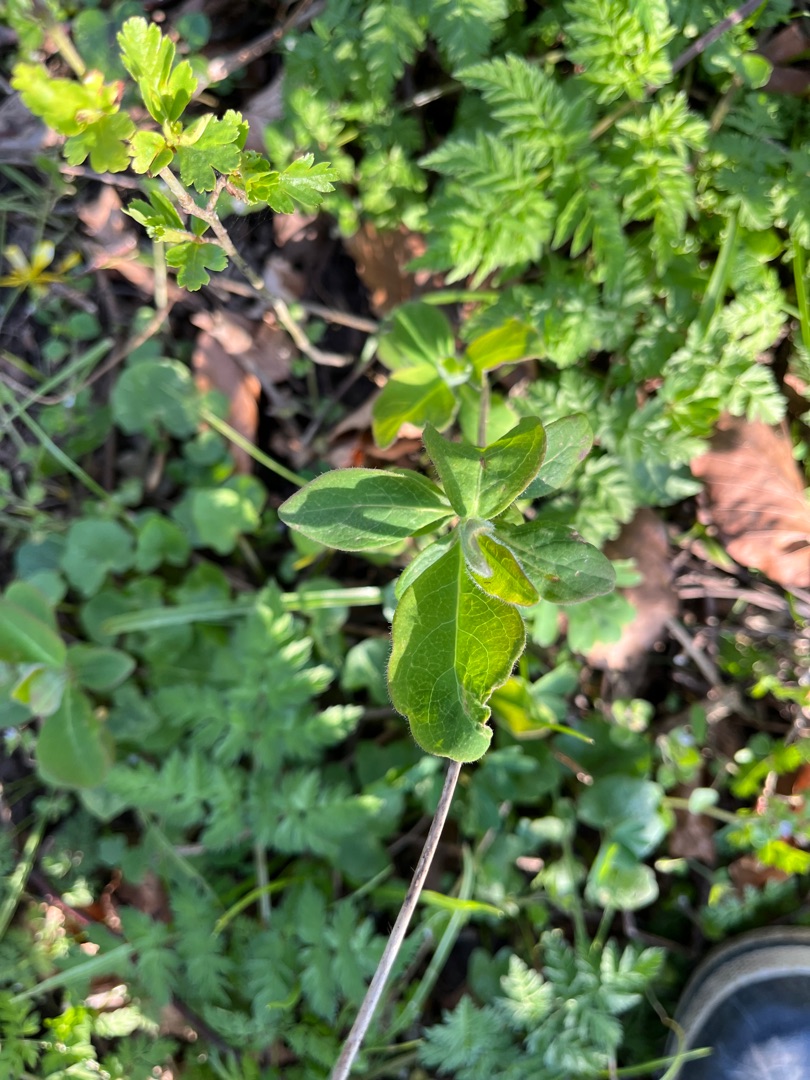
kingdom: Plantae
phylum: Tracheophyta
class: Magnoliopsida
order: Dipsacales
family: Caprifoliaceae
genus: Lonicera
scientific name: Lonicera periclymenum
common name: Almindelig gedeblad
